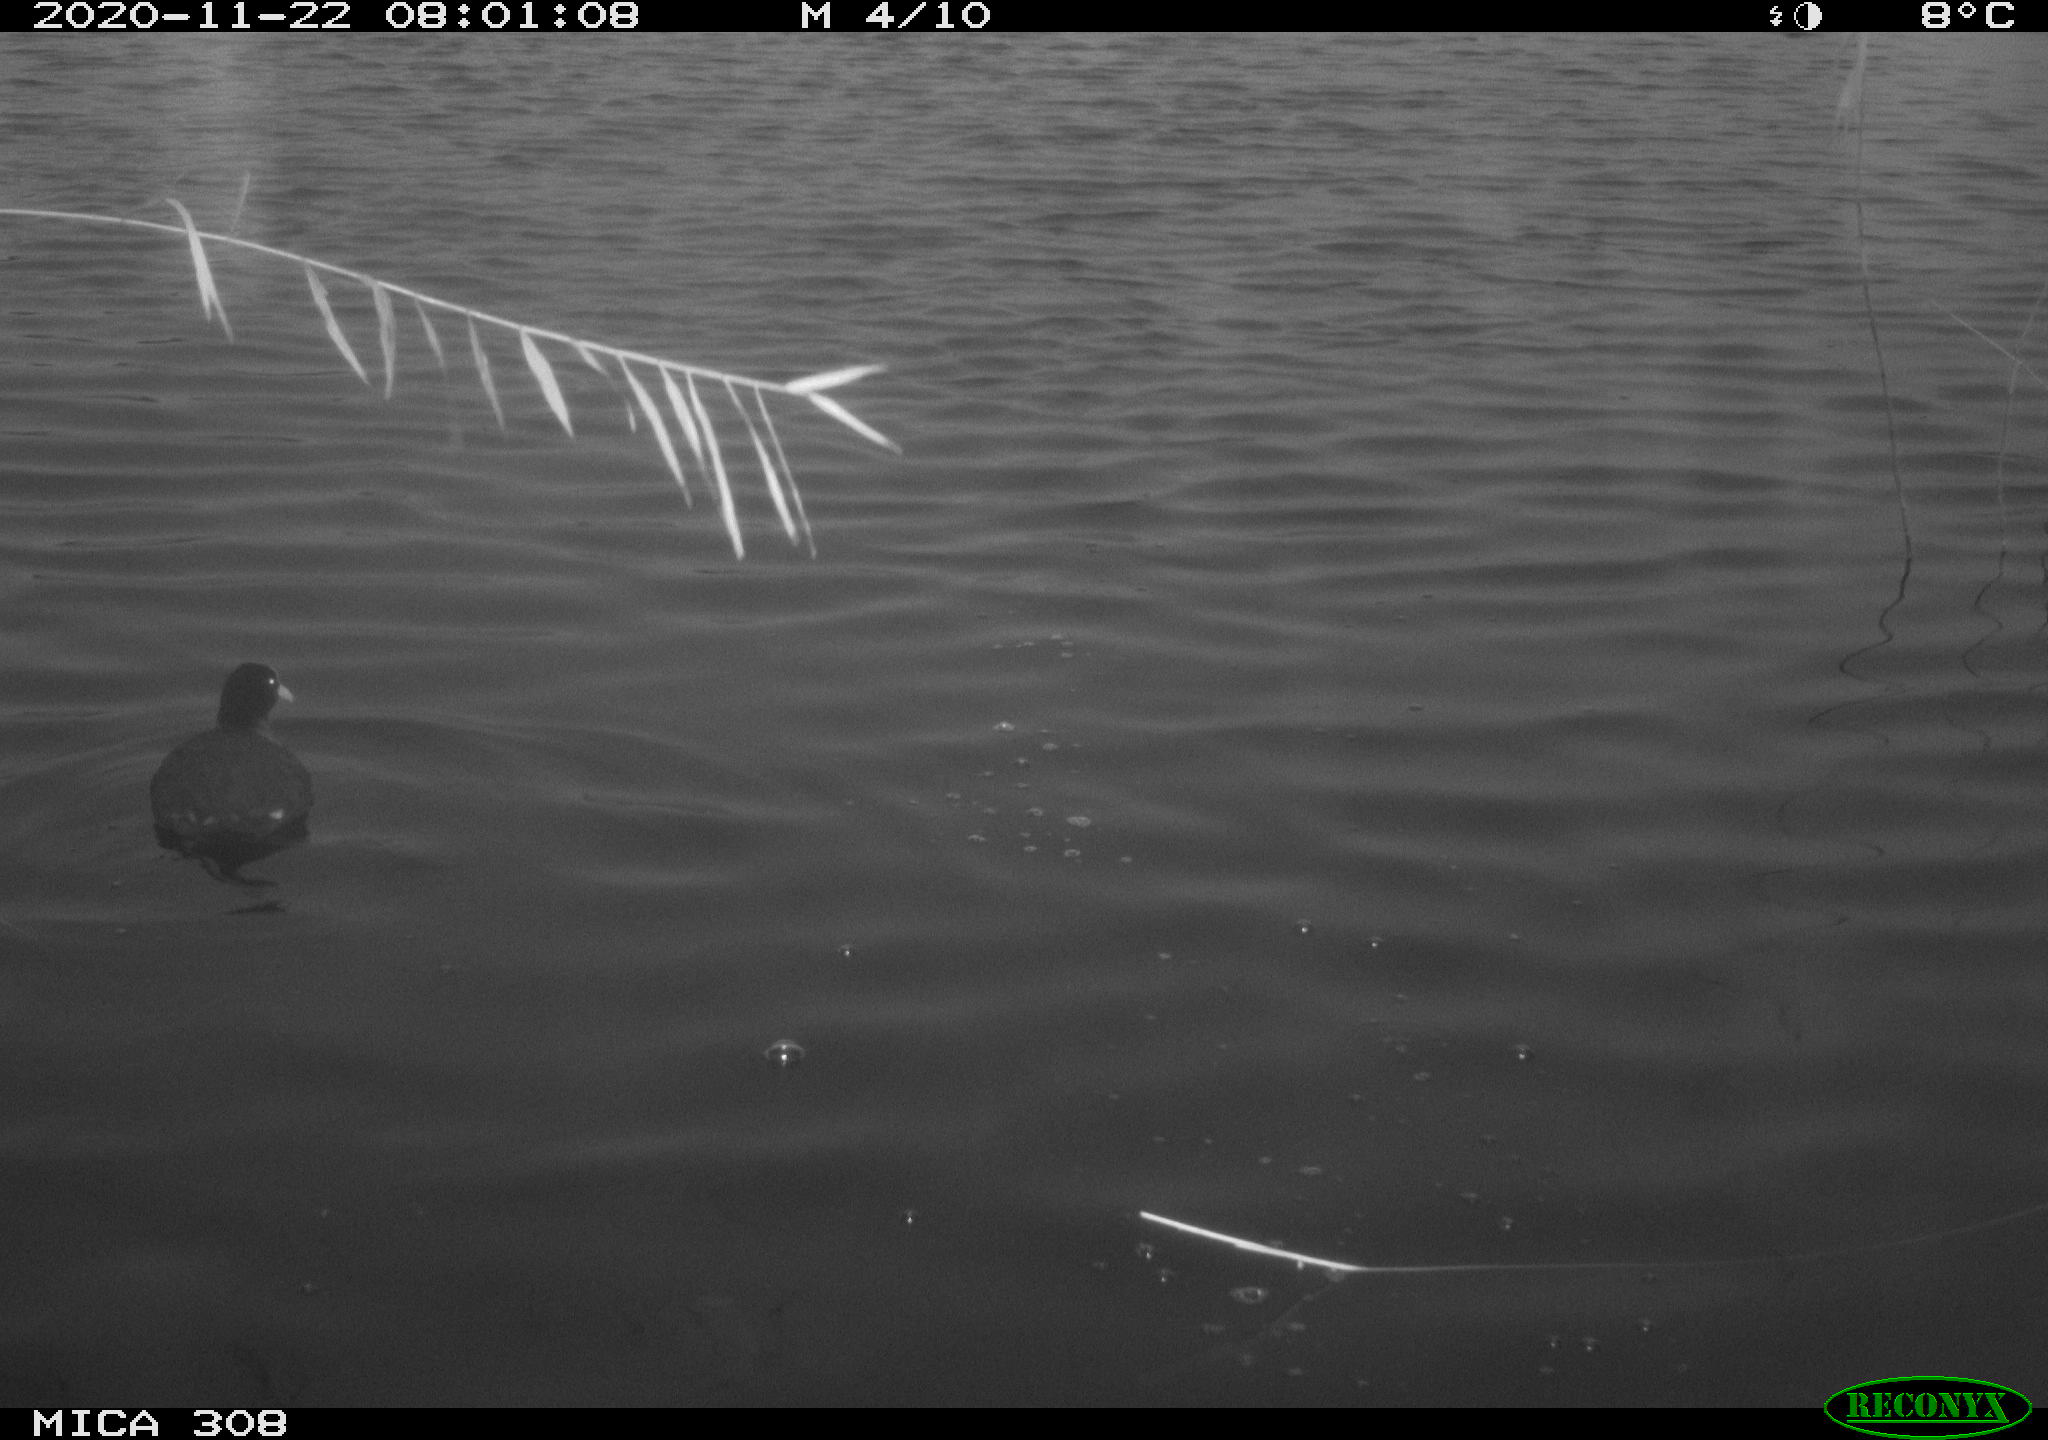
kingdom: Animalia
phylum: Chordata
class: Aves
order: Gruiformes
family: Rallidae
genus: Fulica
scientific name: Fulica atra
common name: Eurasian coot
